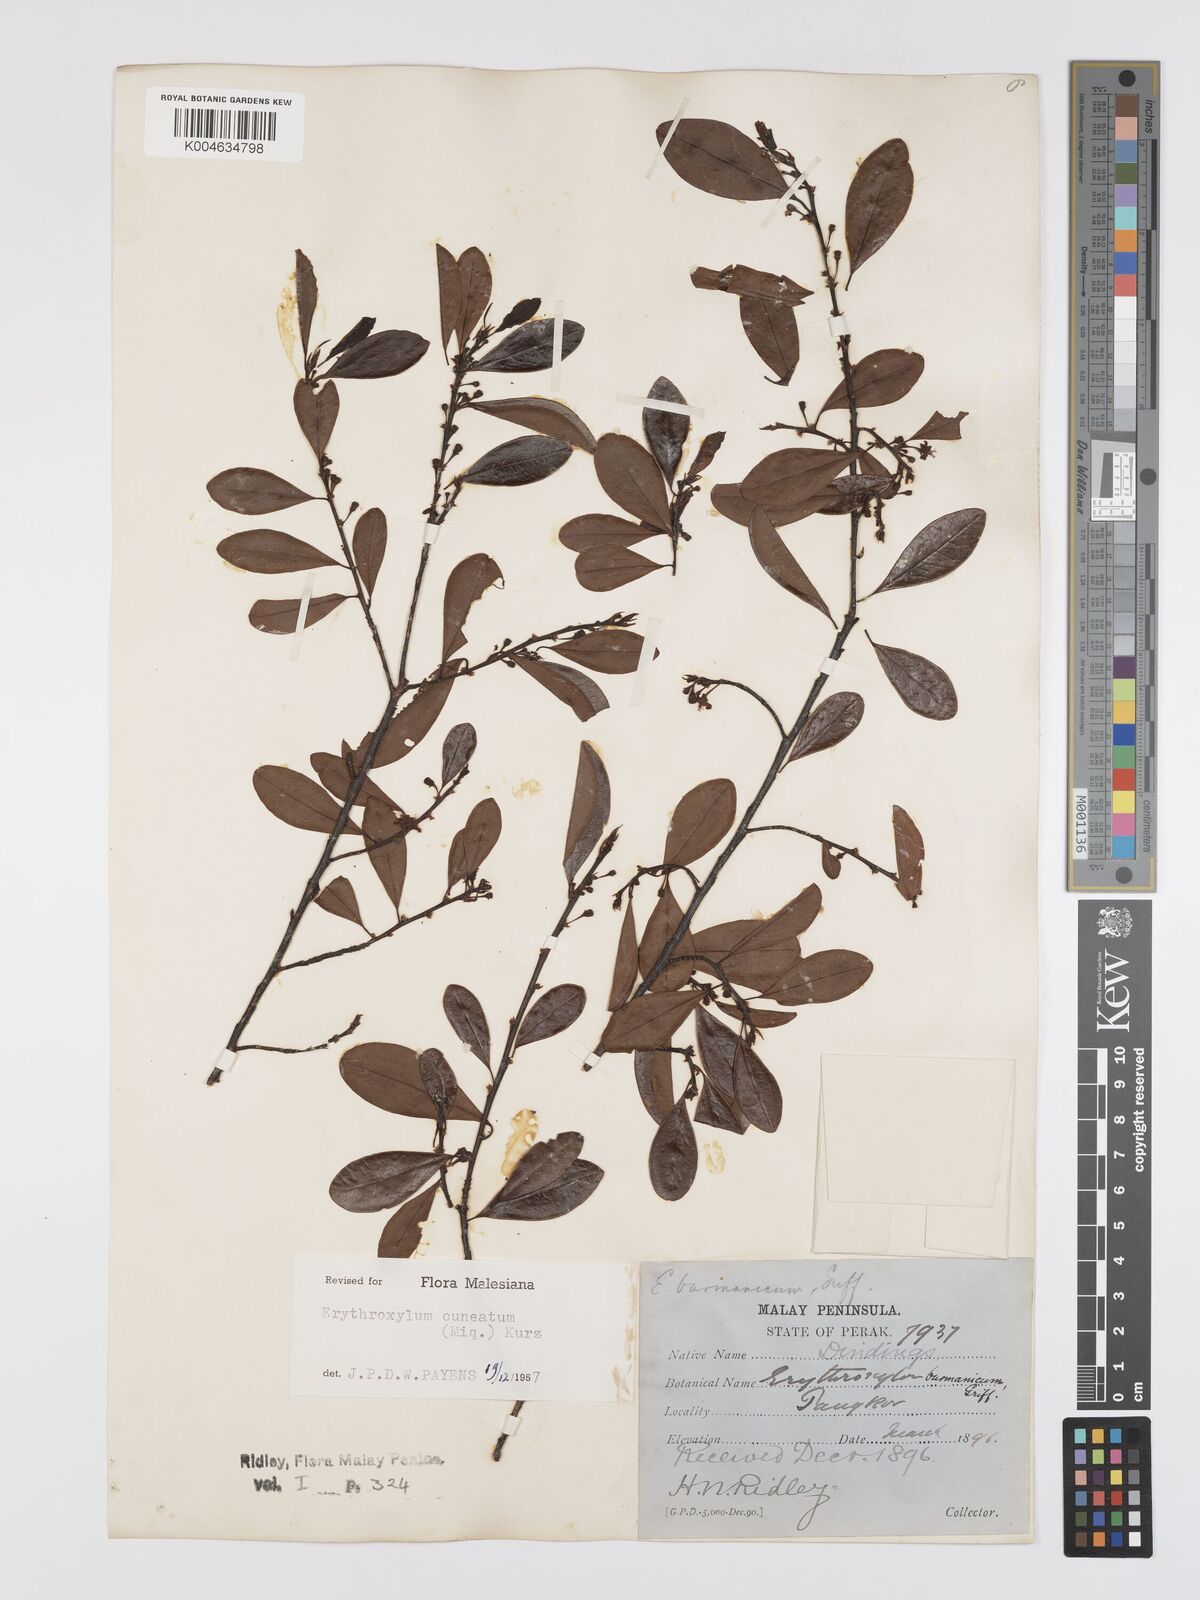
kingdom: Plantae
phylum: Tracheophyta
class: Magnoliopsida
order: Malpighiales
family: Erythroxylaceae
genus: Erythroxylum
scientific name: Erythroxylum cuneatum
